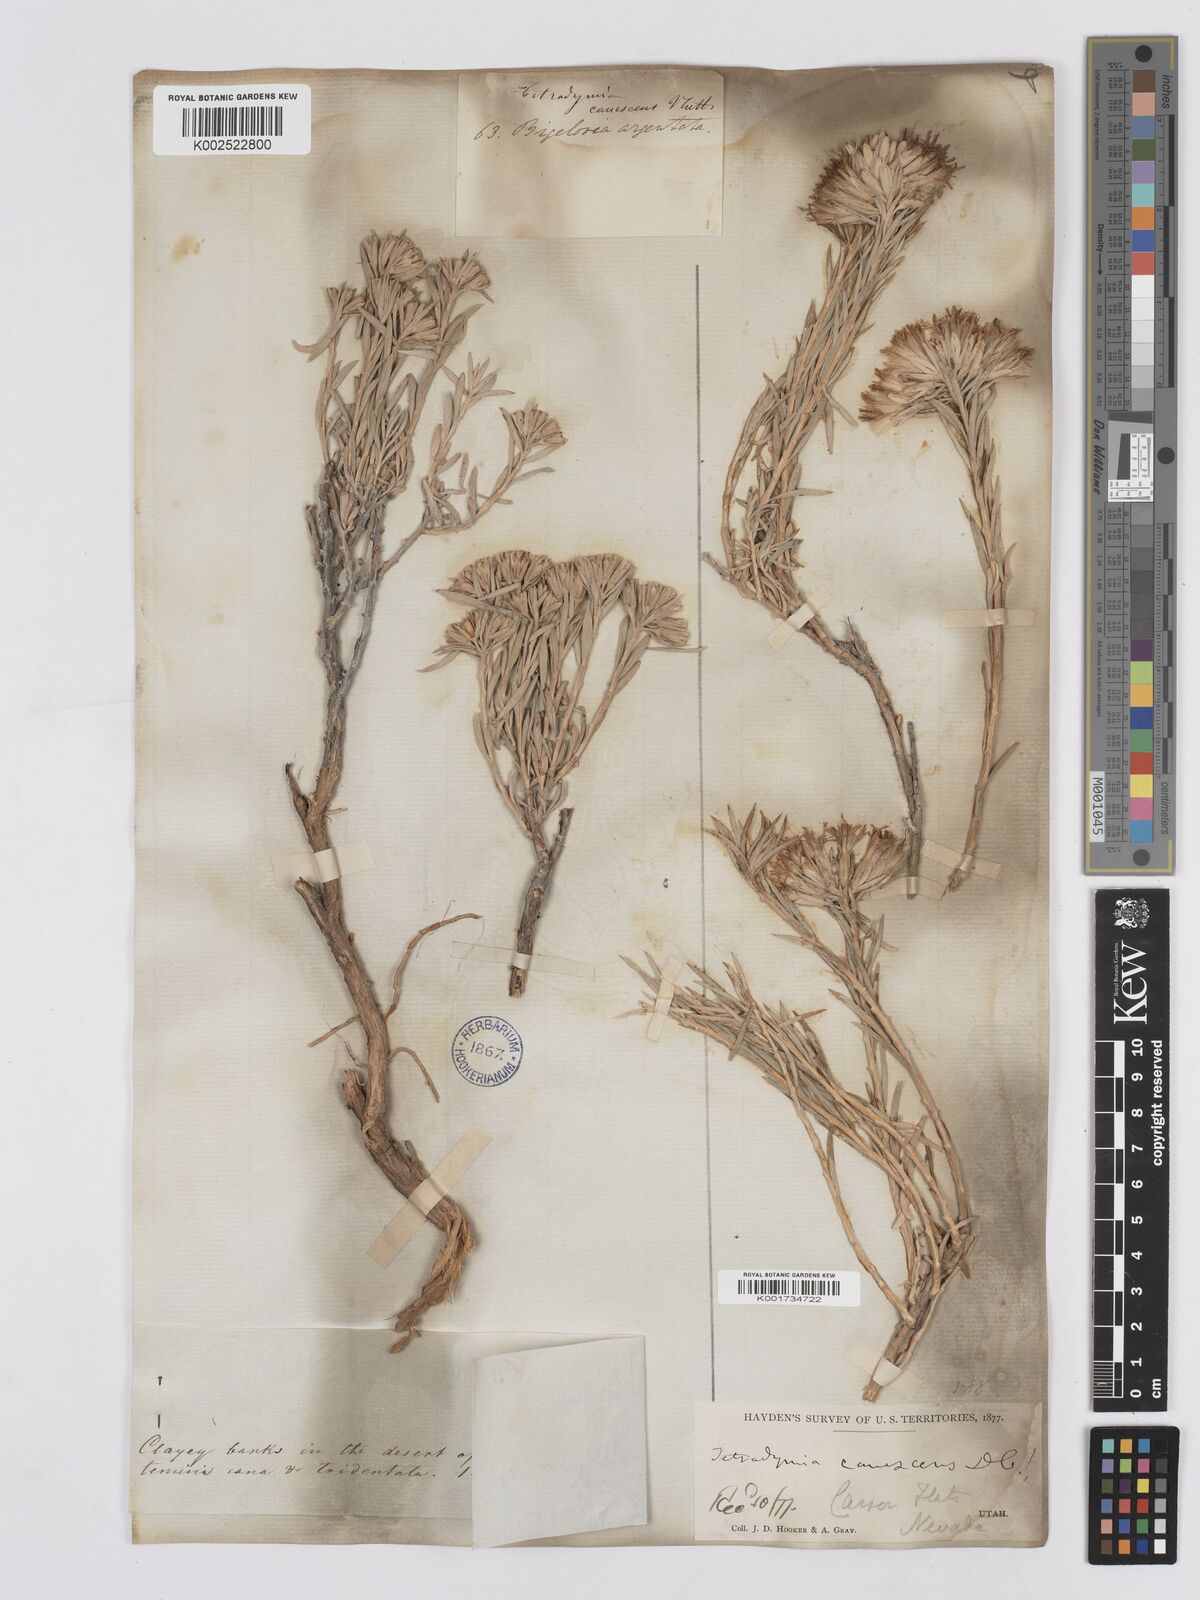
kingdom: Plantae
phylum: Tracheophyta
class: Magnoliopsida
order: Asterales
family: Asteraceae
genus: Tetradymia
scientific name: Tetradymia canescens
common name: Spineless horsebrush
